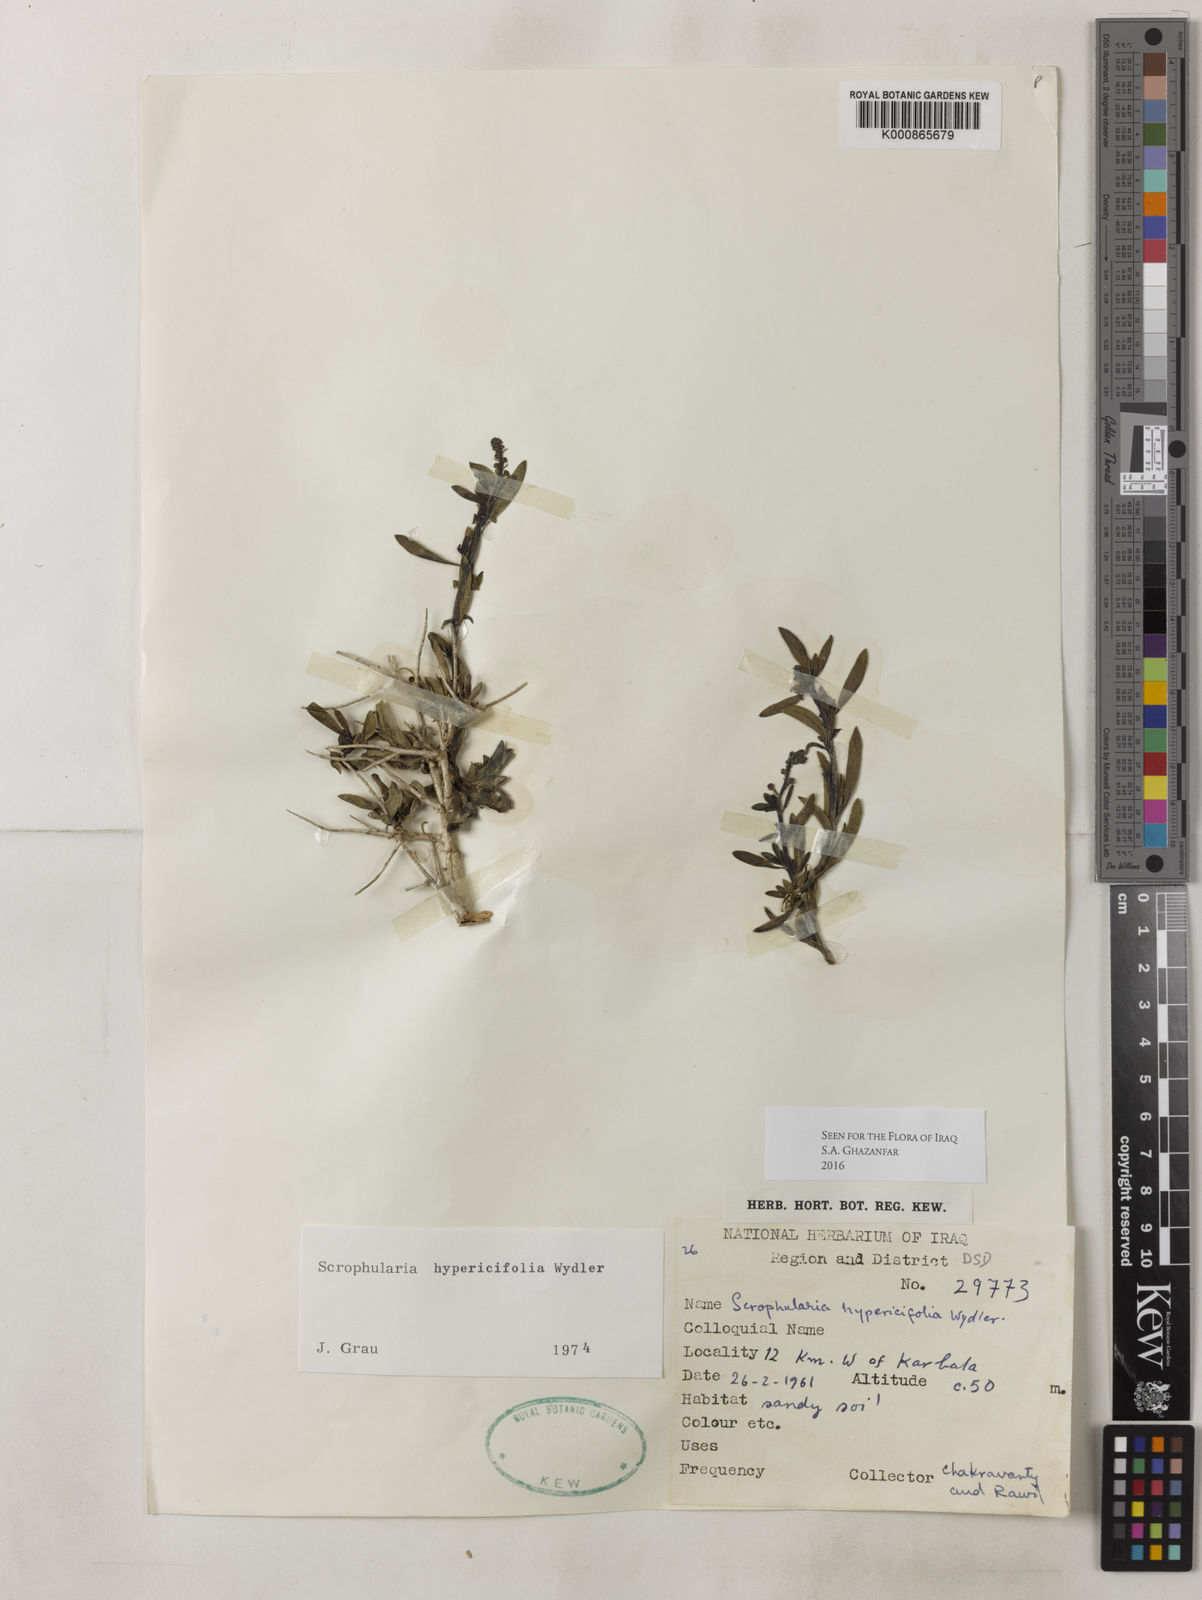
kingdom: Plantae
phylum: Tracheophyta
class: Magnoliopsida
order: Lamiales
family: Scrophulariaceae
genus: Scrophularia
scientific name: Scrophularia hypericifolia
